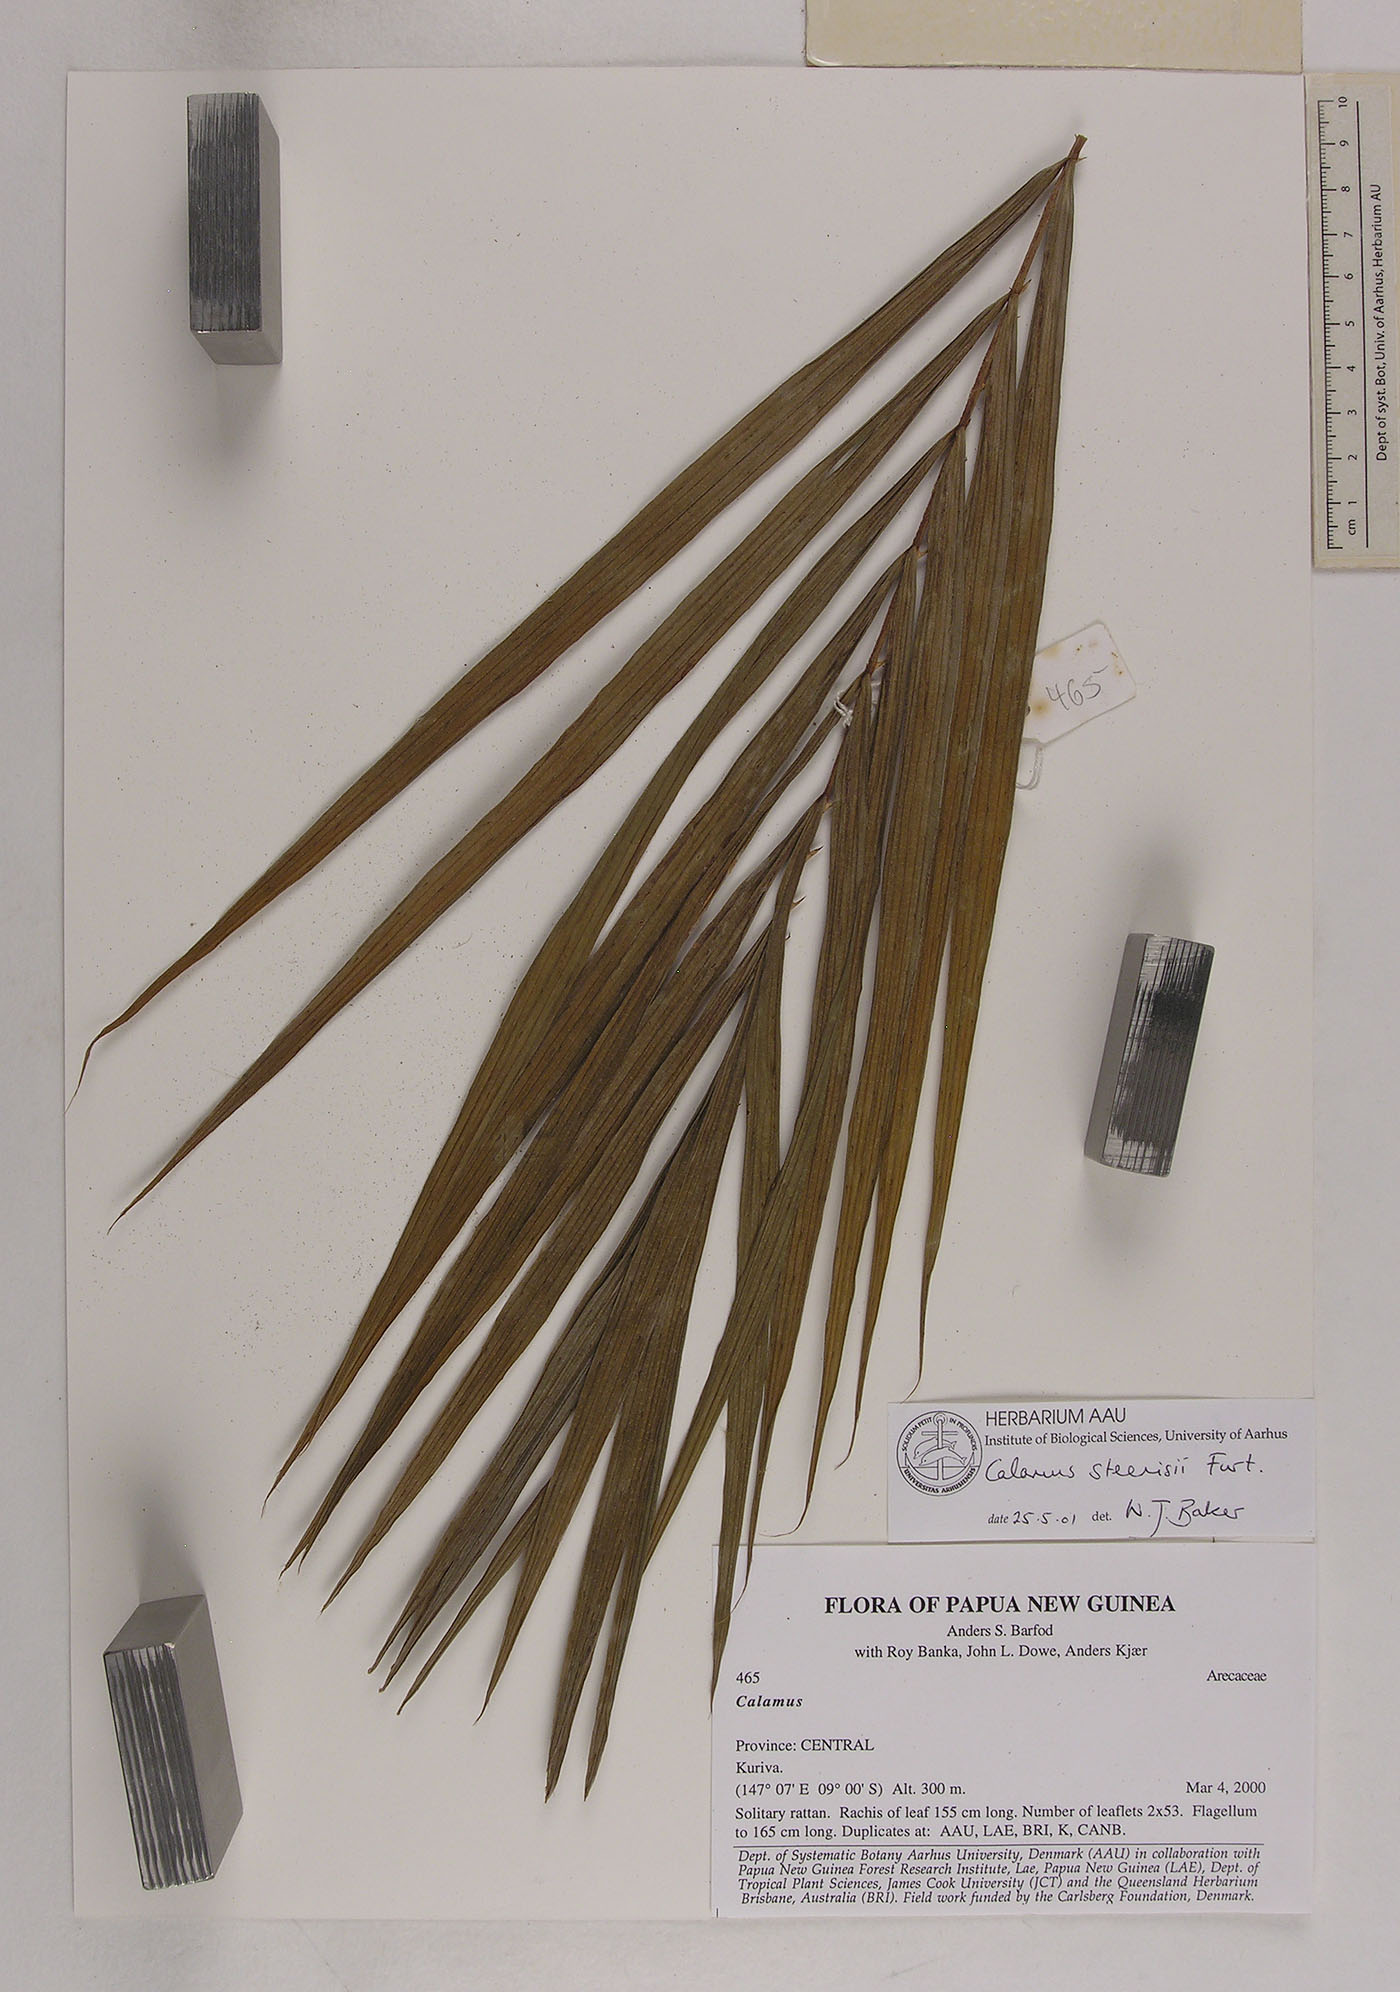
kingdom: Plantae
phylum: Tracheophyta
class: Liliopsida
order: Arecales
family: Arecaceae
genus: Calamus
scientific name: Calamus zebrinus
